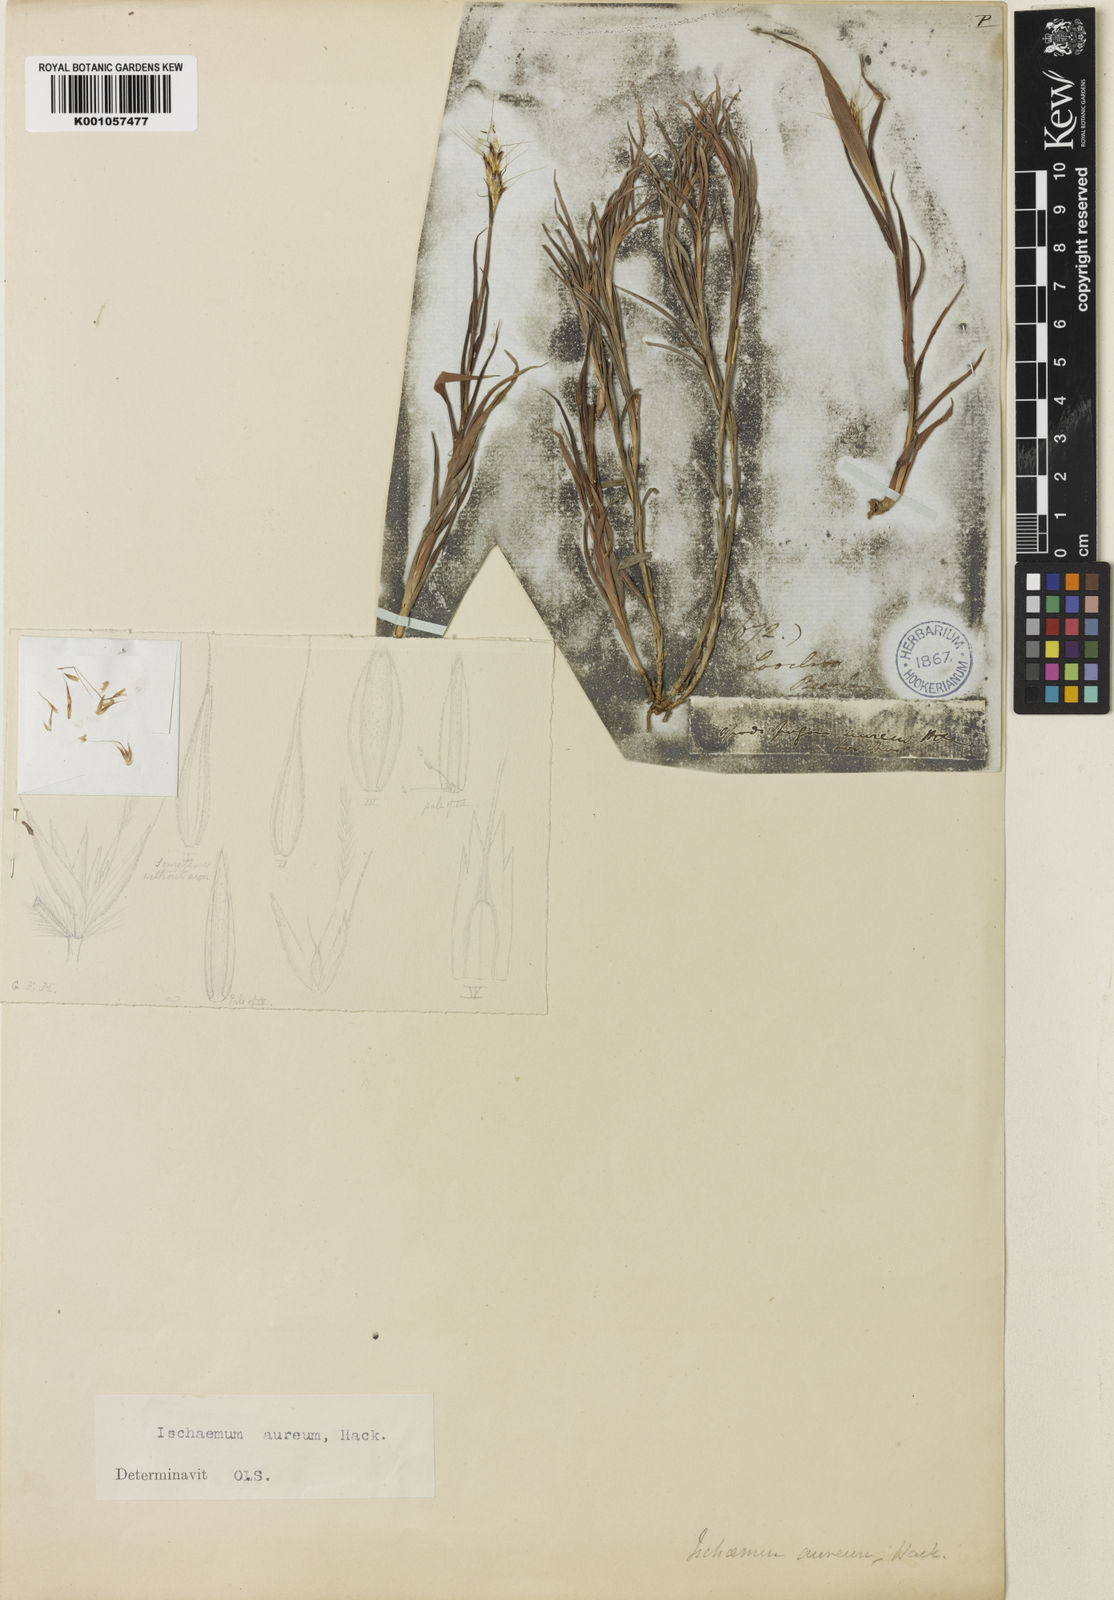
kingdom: Plantae
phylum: Tracheophyta
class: Liliopsida
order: Poales
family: Poaceae
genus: Ischaemum
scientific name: Ischaemum aureum
